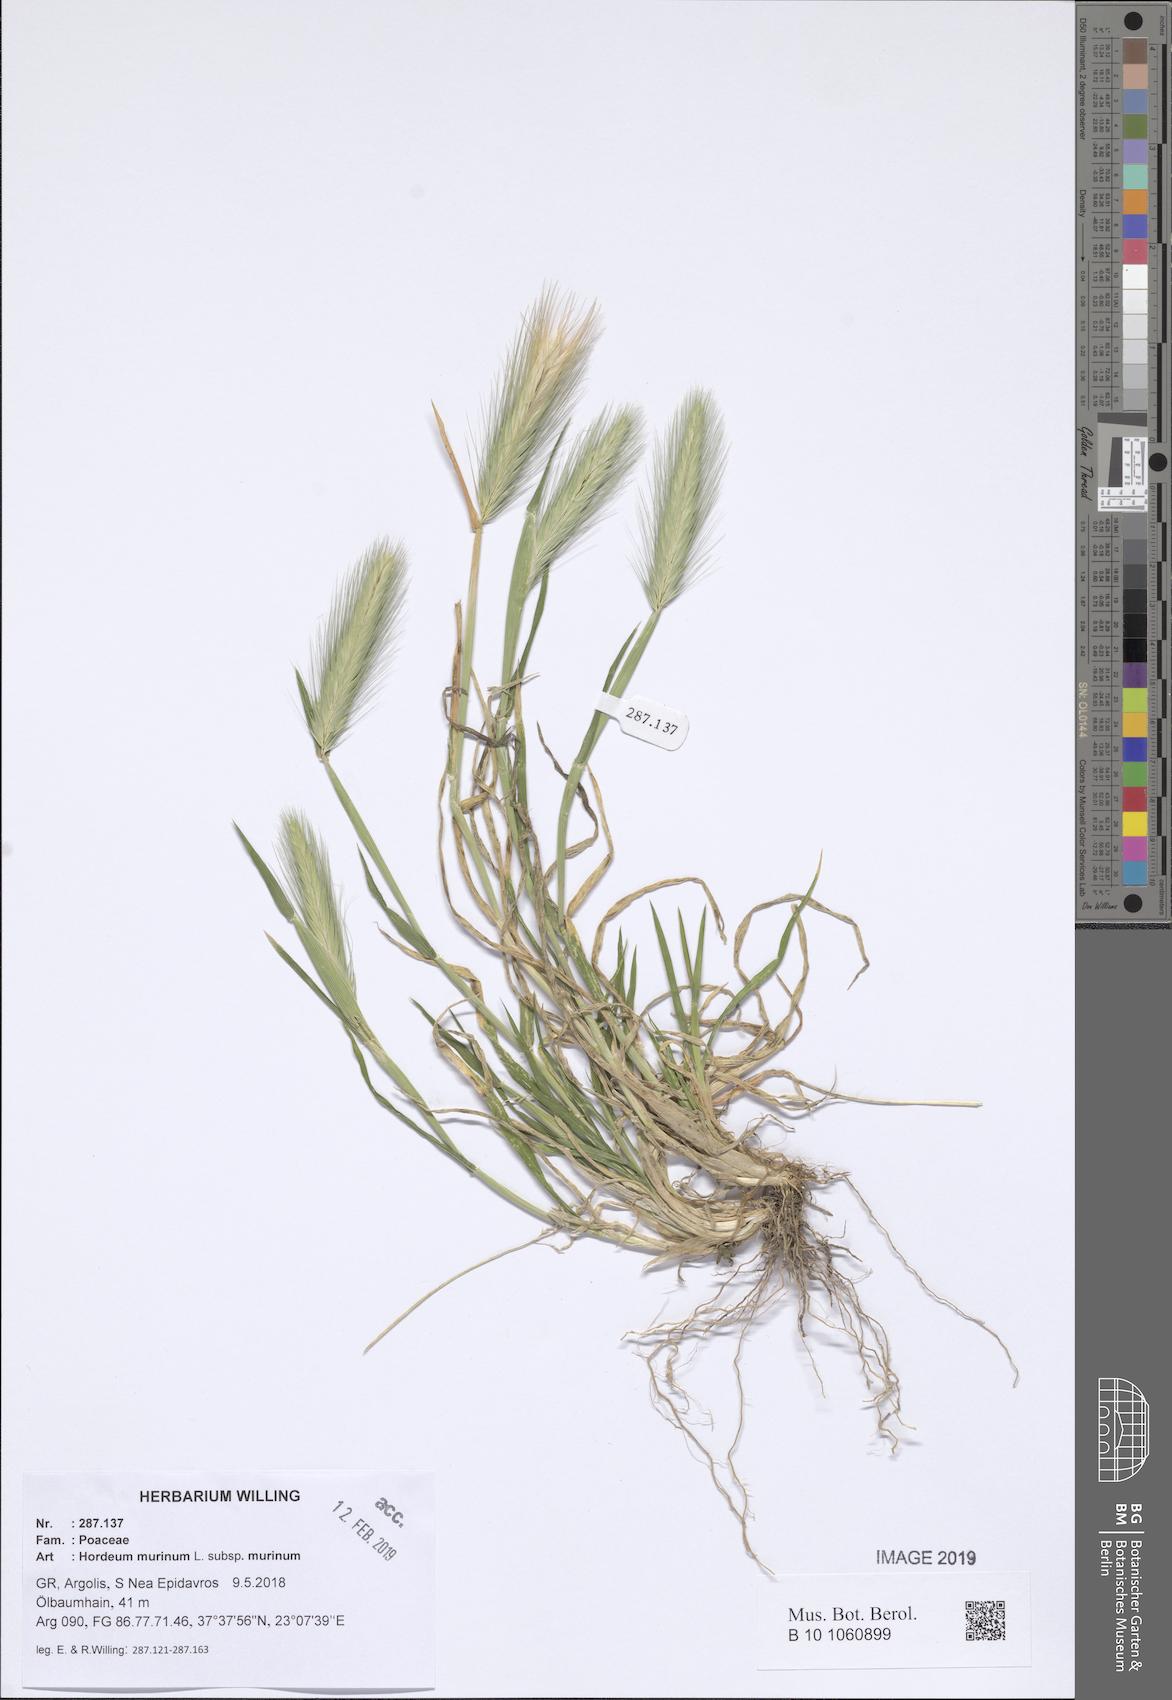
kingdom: Plantae
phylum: Tracheophyta
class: Liliopsida
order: Poales
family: Poaceae
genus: Hordeum
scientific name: Hordeum murinum
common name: Wall barley
